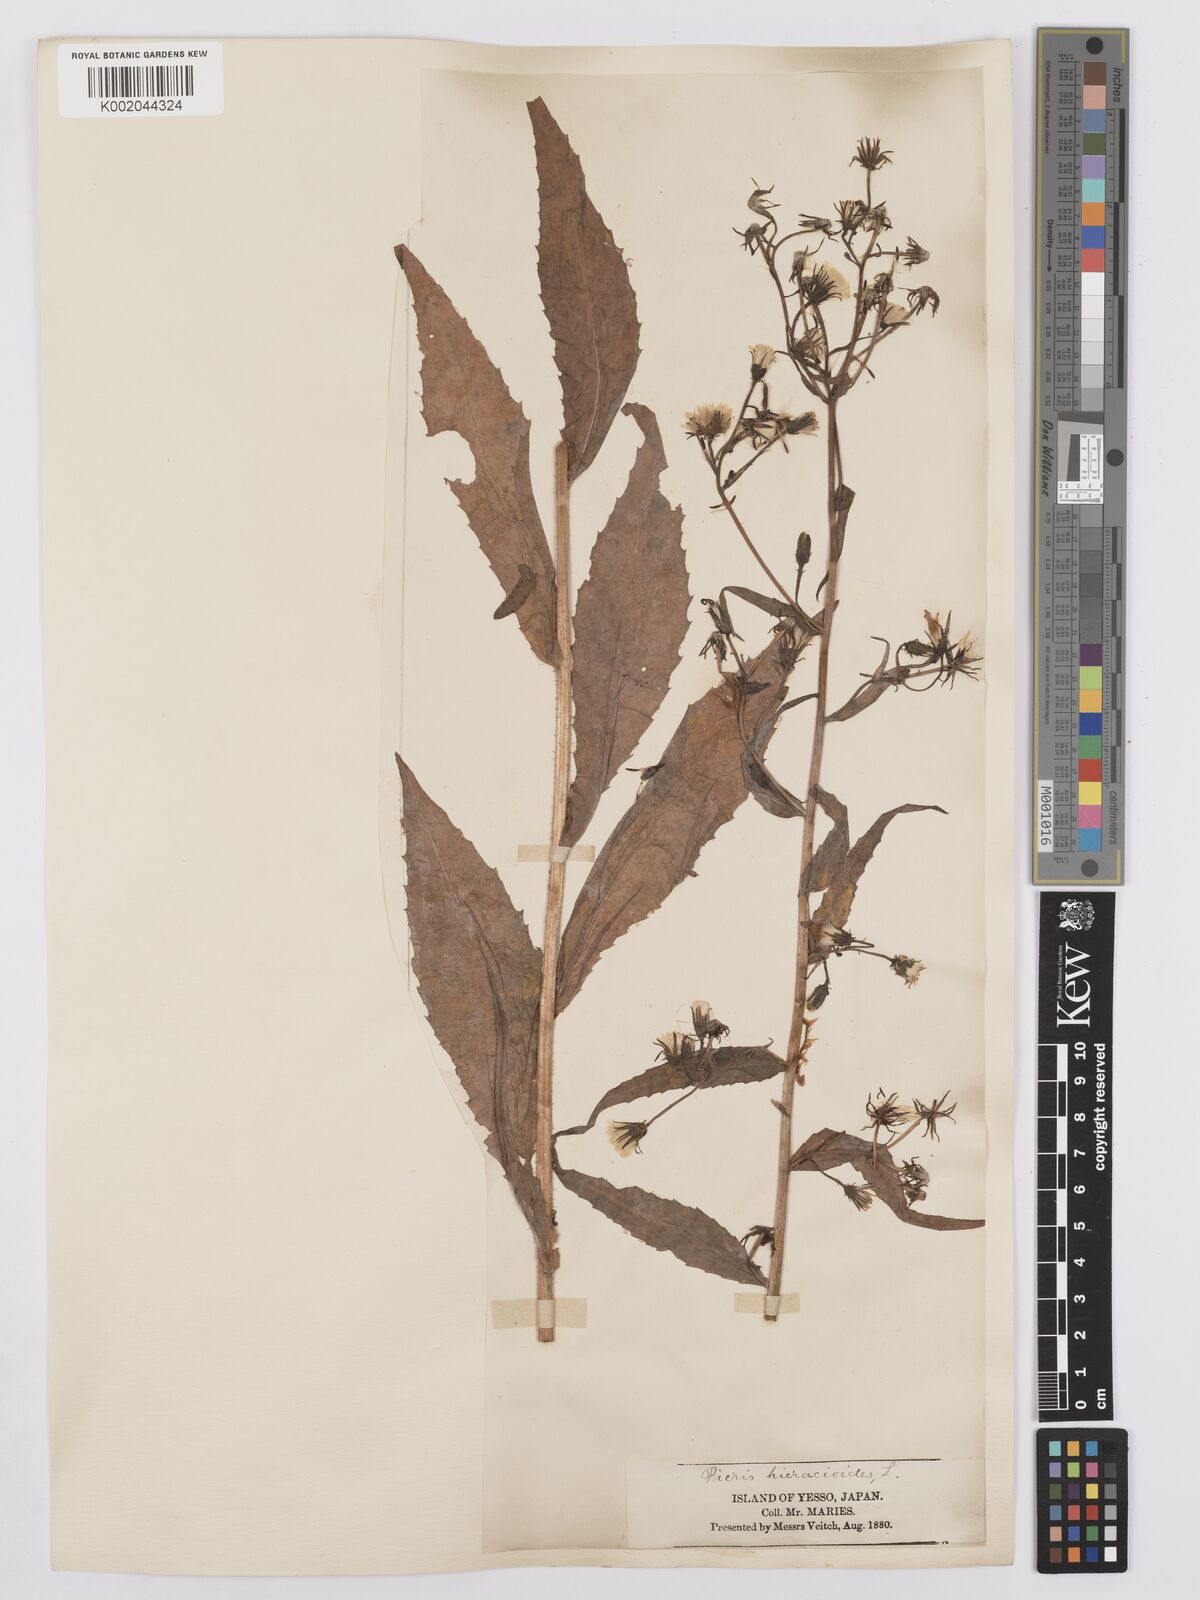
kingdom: Plantae
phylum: Tracheophyta
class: Magnoliopsida
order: Asterales
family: Asteraceae
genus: Picris
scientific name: Picris hieracioides
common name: Hawkweed oxtongue
